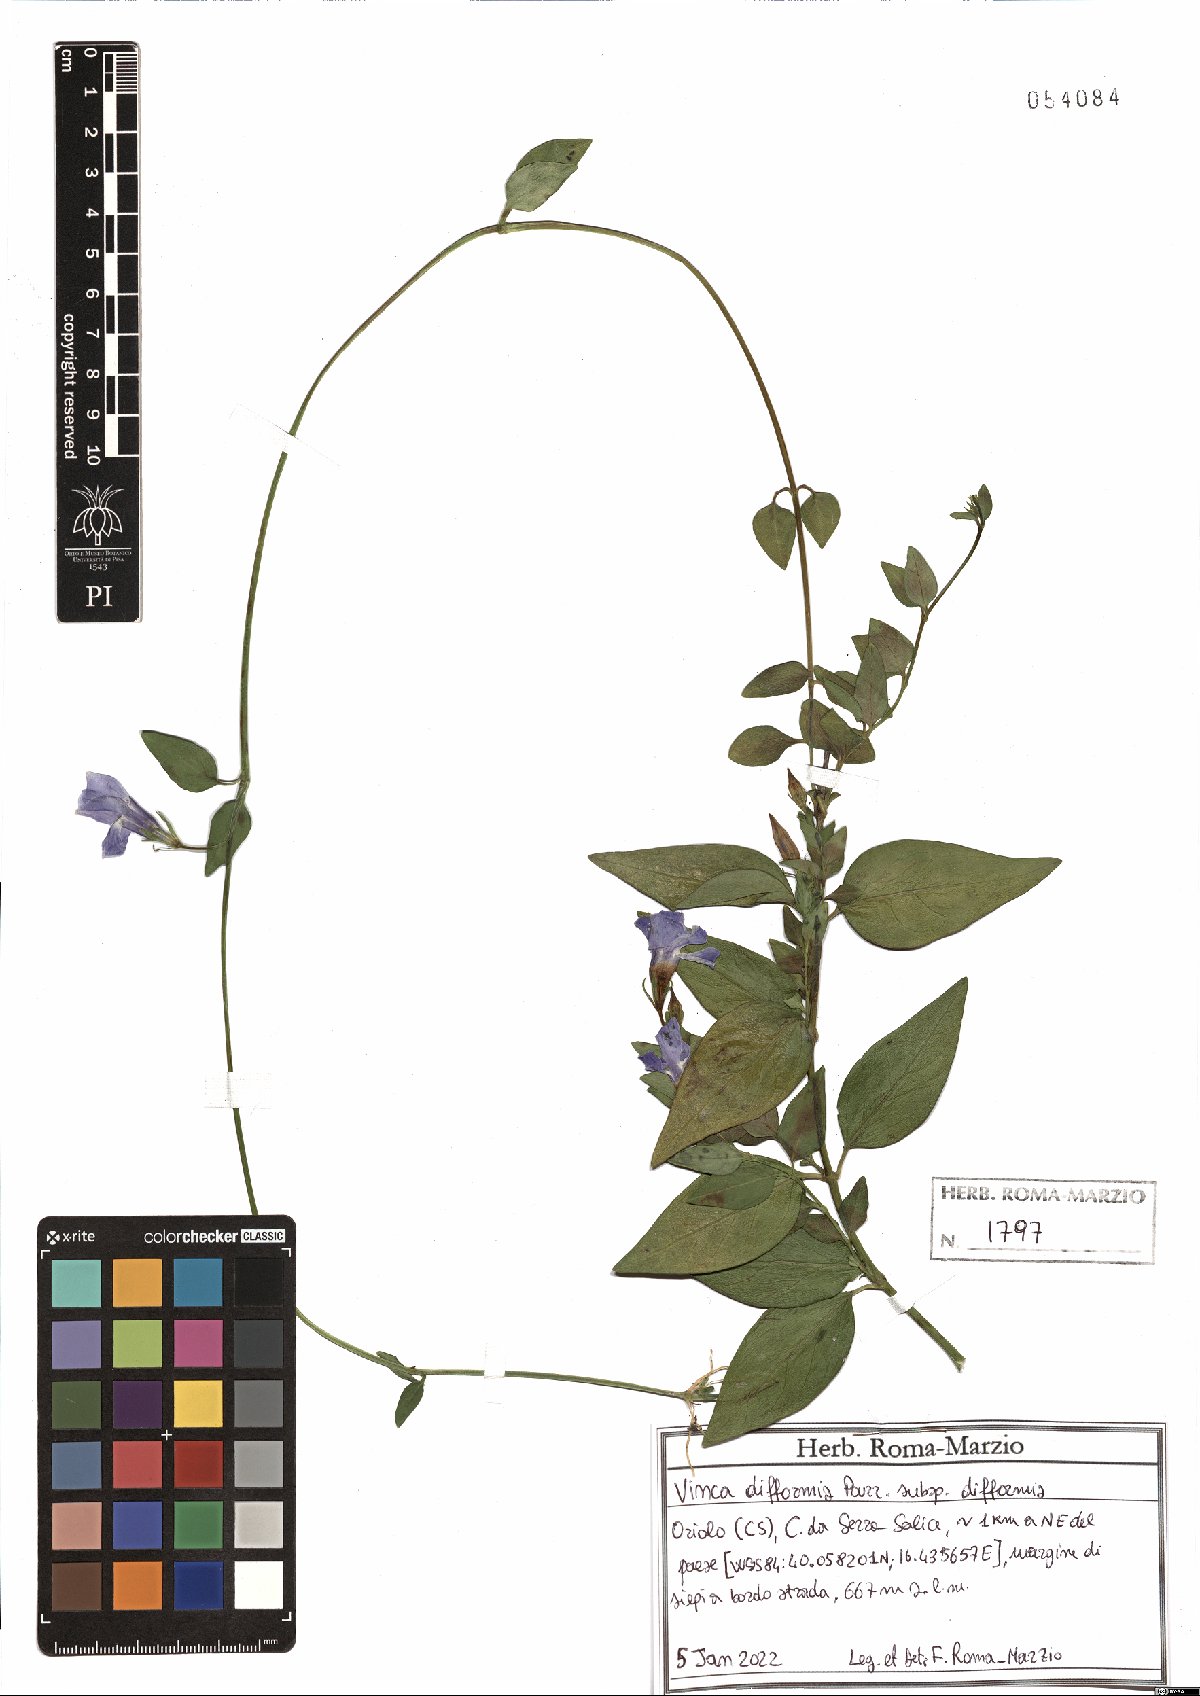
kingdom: Plantae
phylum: Tracheophyta
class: Magnoliopsida
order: Gentianales
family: Apocynaceae
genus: Vinca
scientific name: Vinca difformis
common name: Intermediate periwinkle
